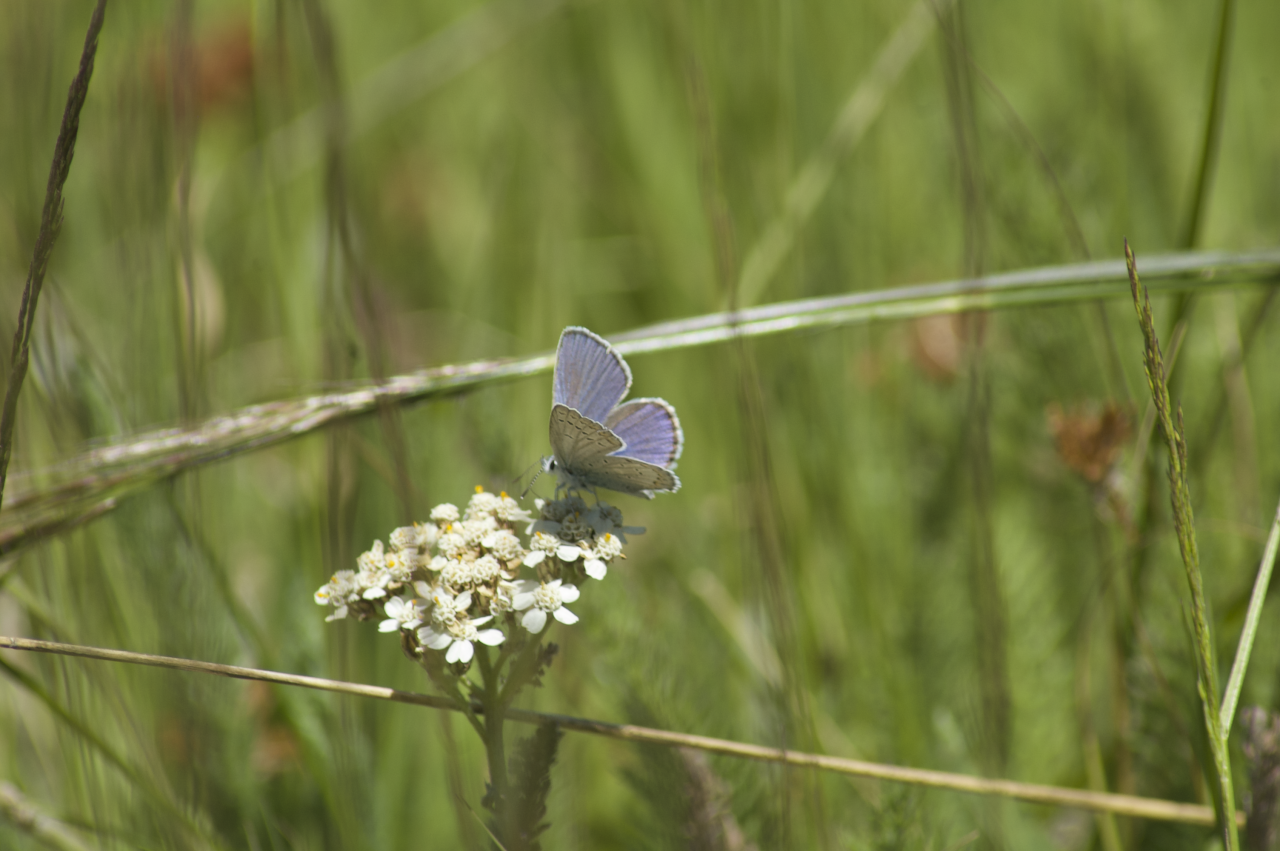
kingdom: Animalia
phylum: Arthropoda
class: Insecta
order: Lepidoptera
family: Lycaenidae
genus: Lycaeides
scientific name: Lycaeides anna
